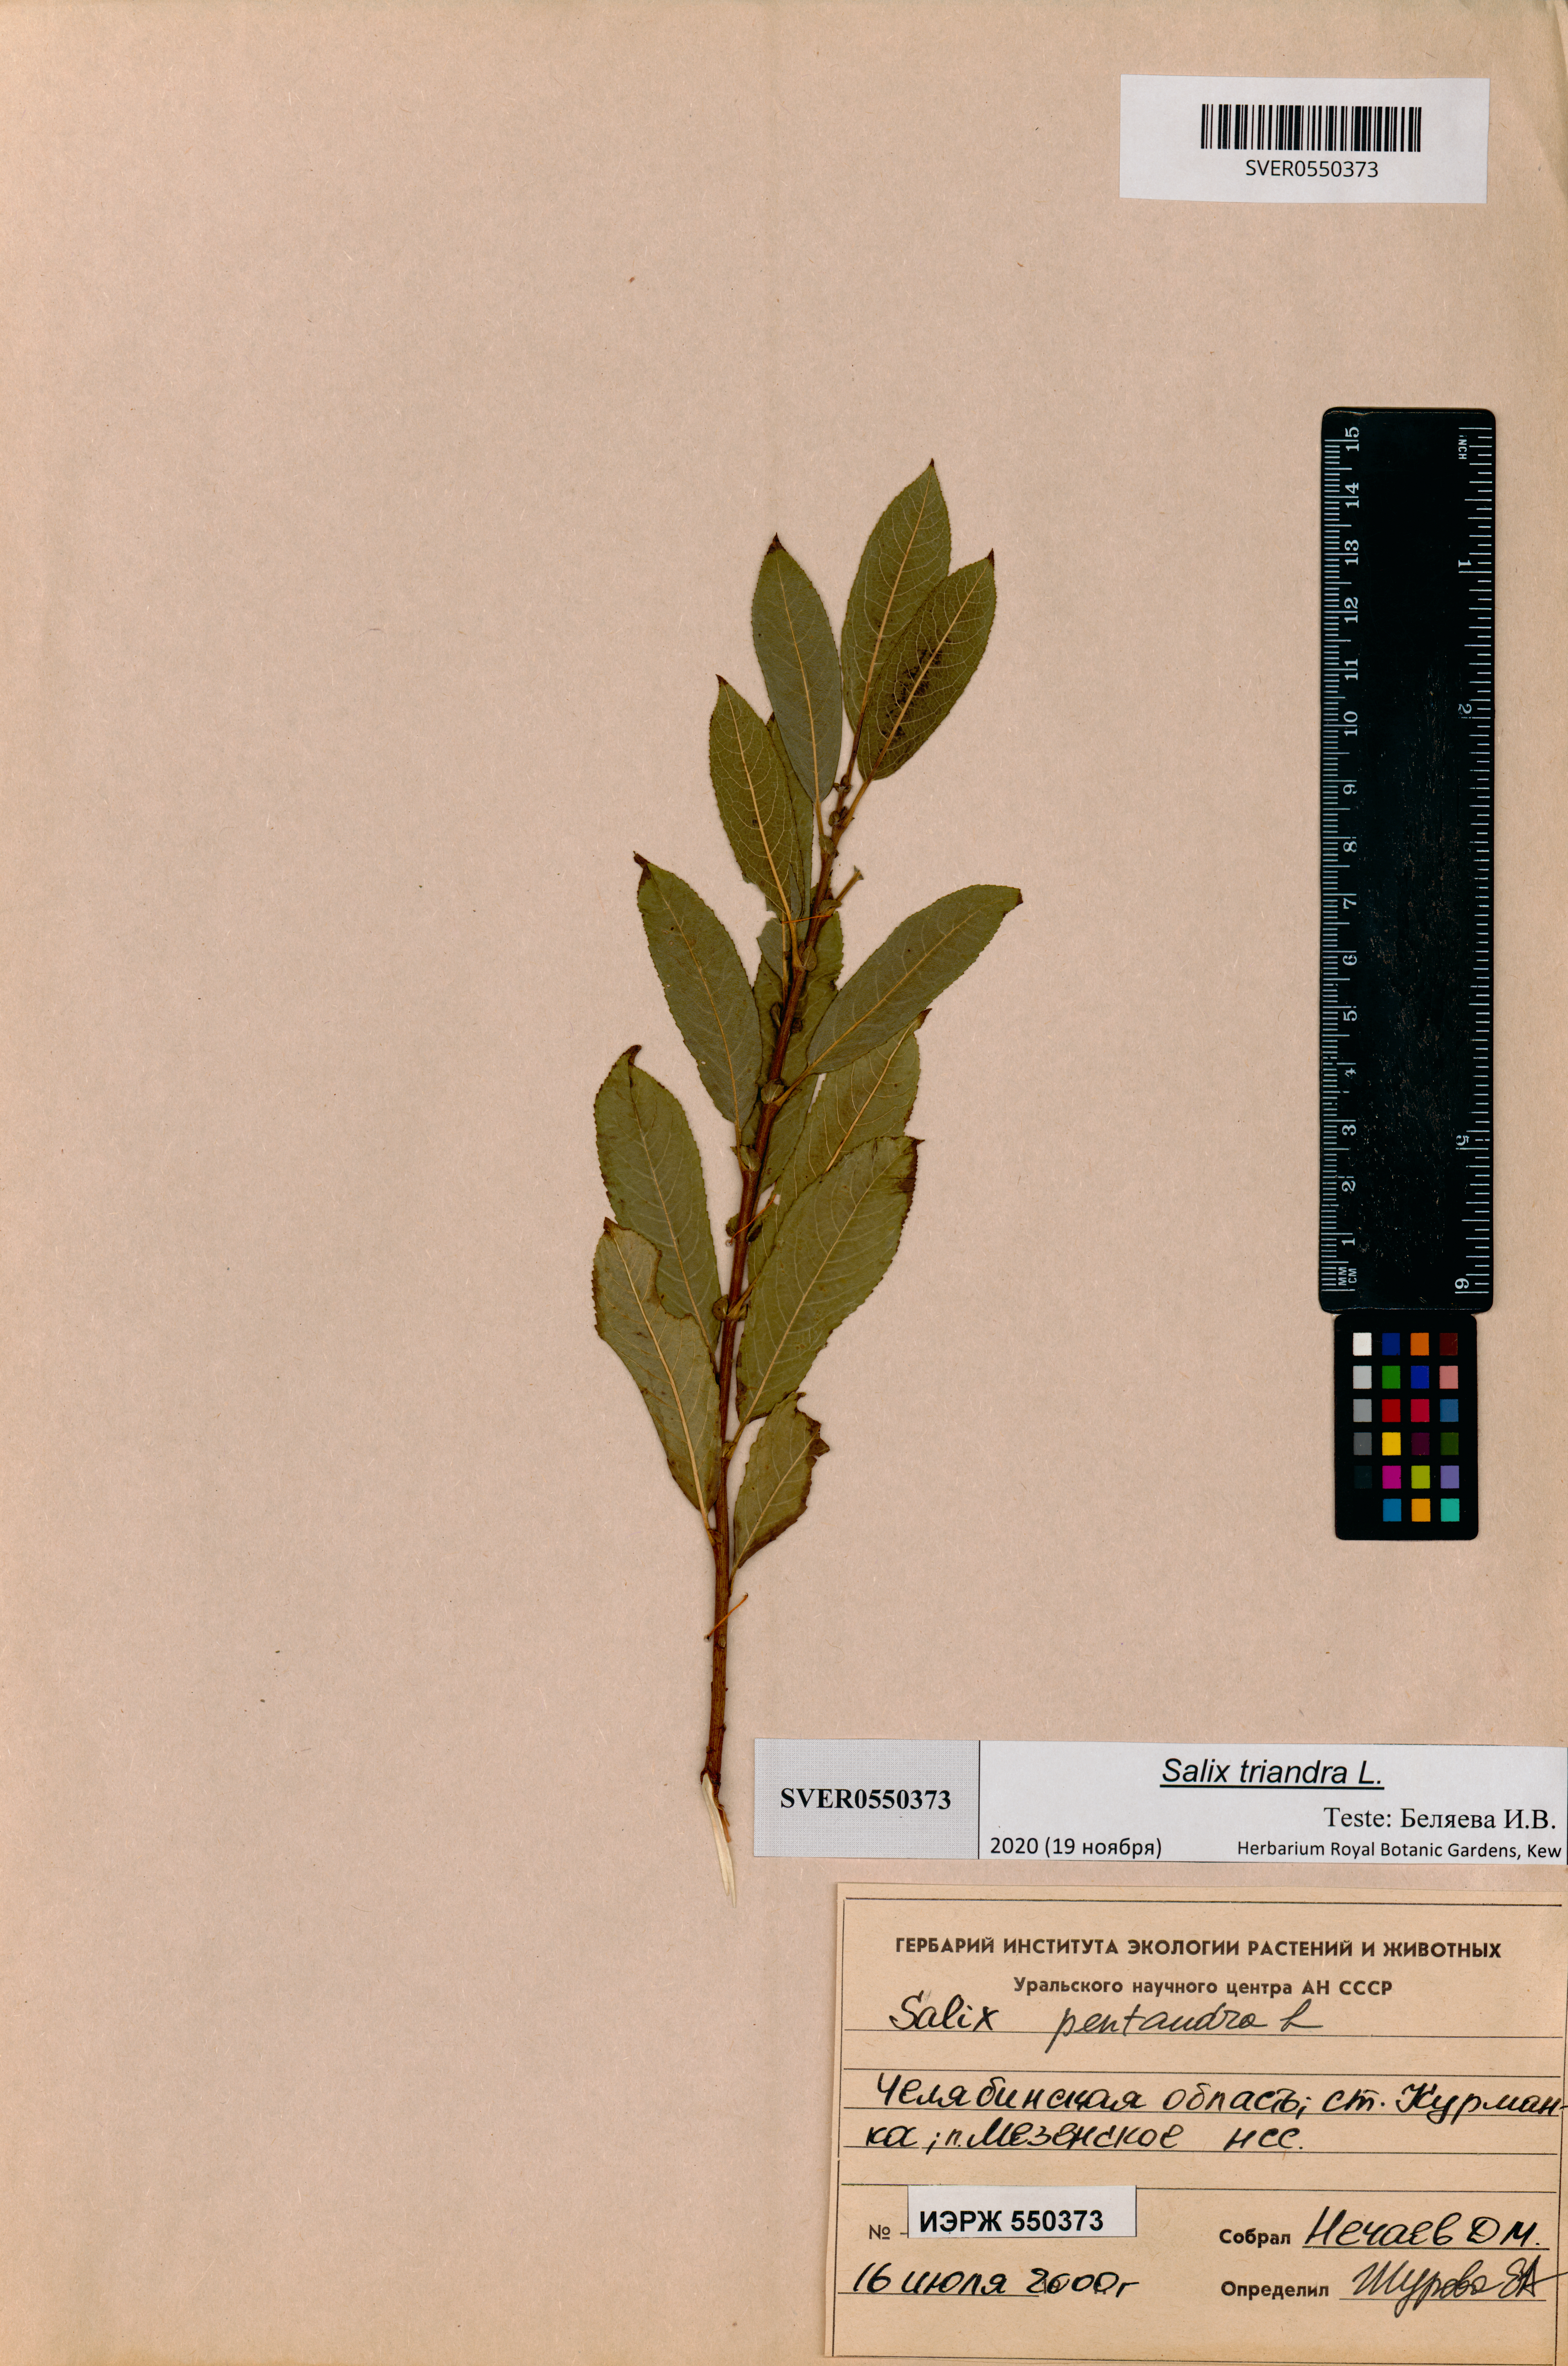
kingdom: Plantae
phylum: Tracheophyta
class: Magnoliopsida
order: Malpighiales
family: Salicaceae
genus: Salix
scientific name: Salix triandra
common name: Almond willow
